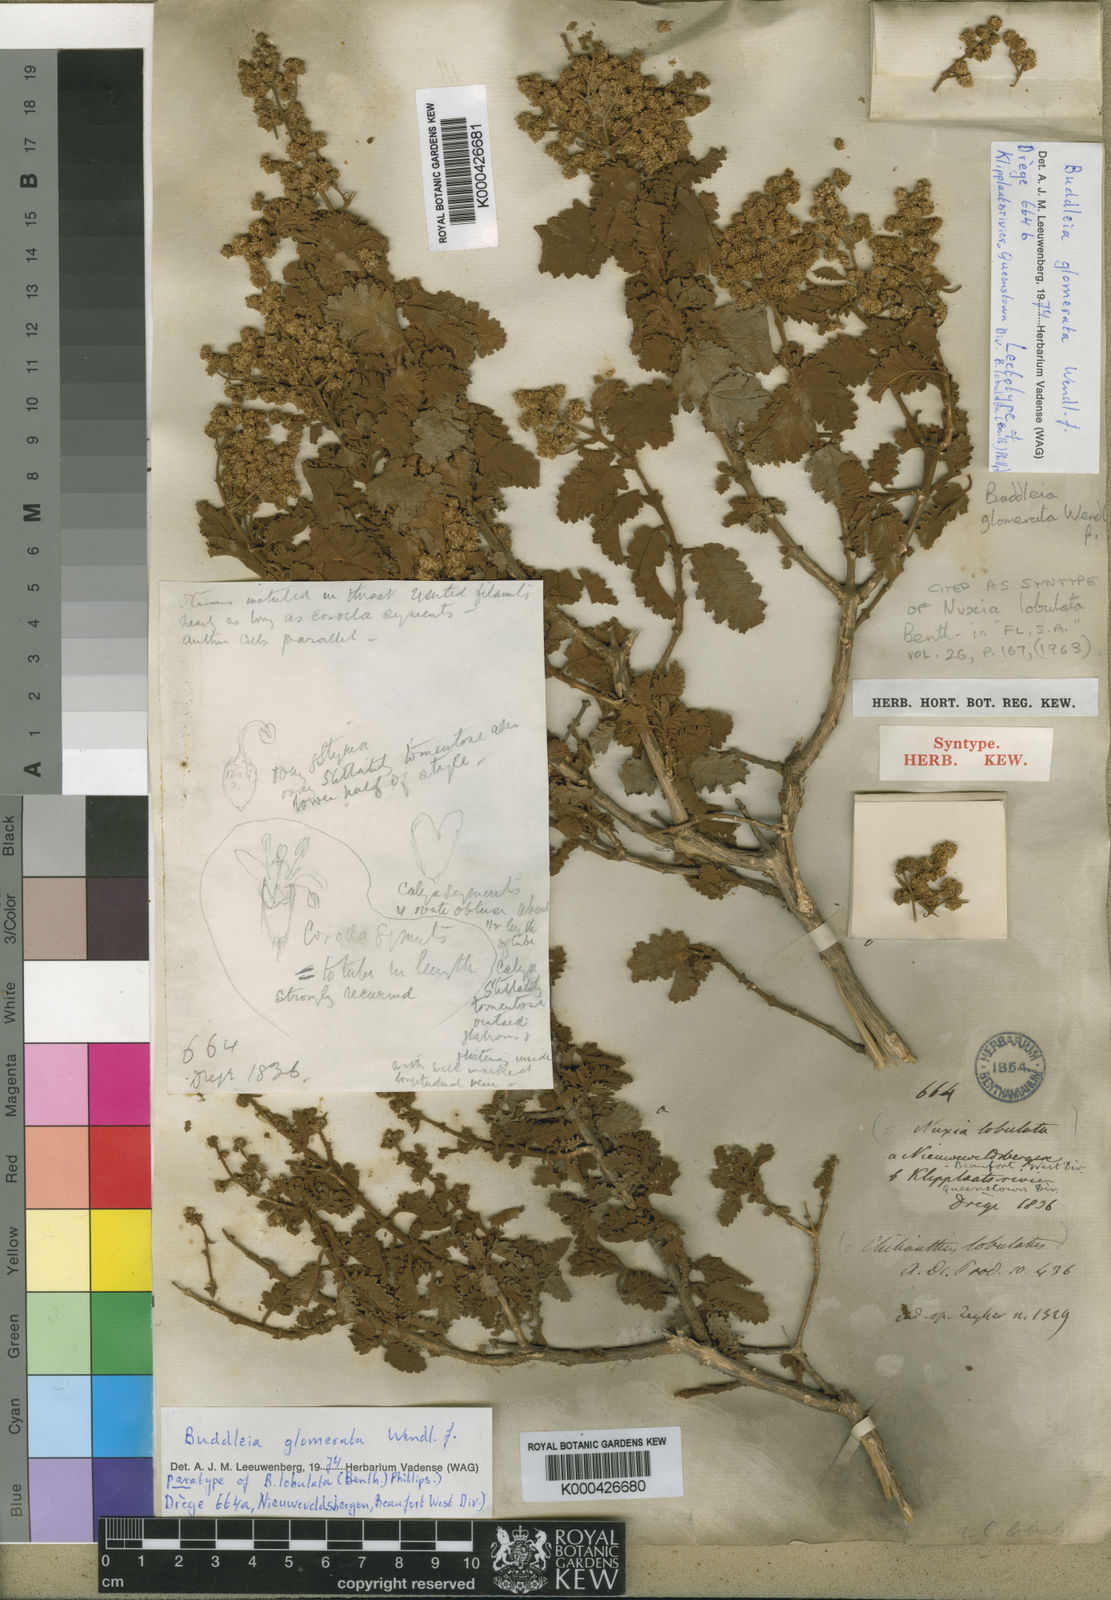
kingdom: Plantae
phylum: Tracheophyta
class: Magnoliopsida
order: Lamiales
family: Scrophulariaceae
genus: Buddleja
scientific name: Buddleja glomerata
